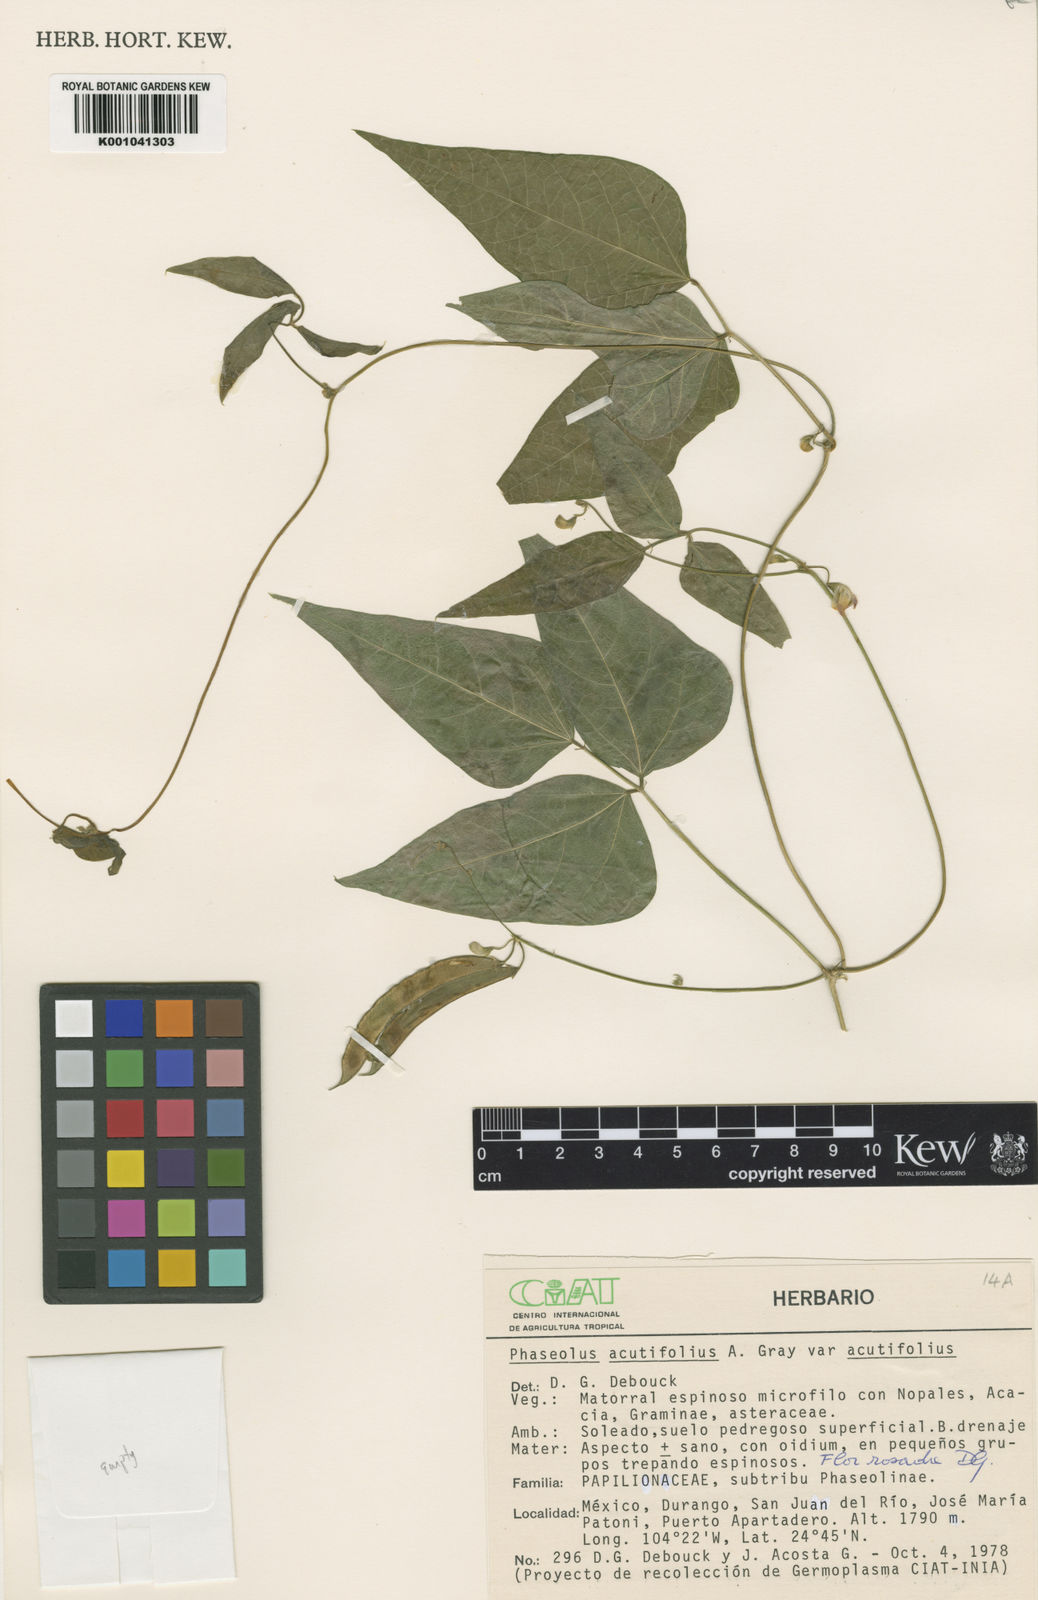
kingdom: Plantae
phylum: Tracheophyta
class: Magnoliopsida
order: Fabales
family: Fabaceae
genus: Phaseolus
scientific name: Phaseolus acutifolius
